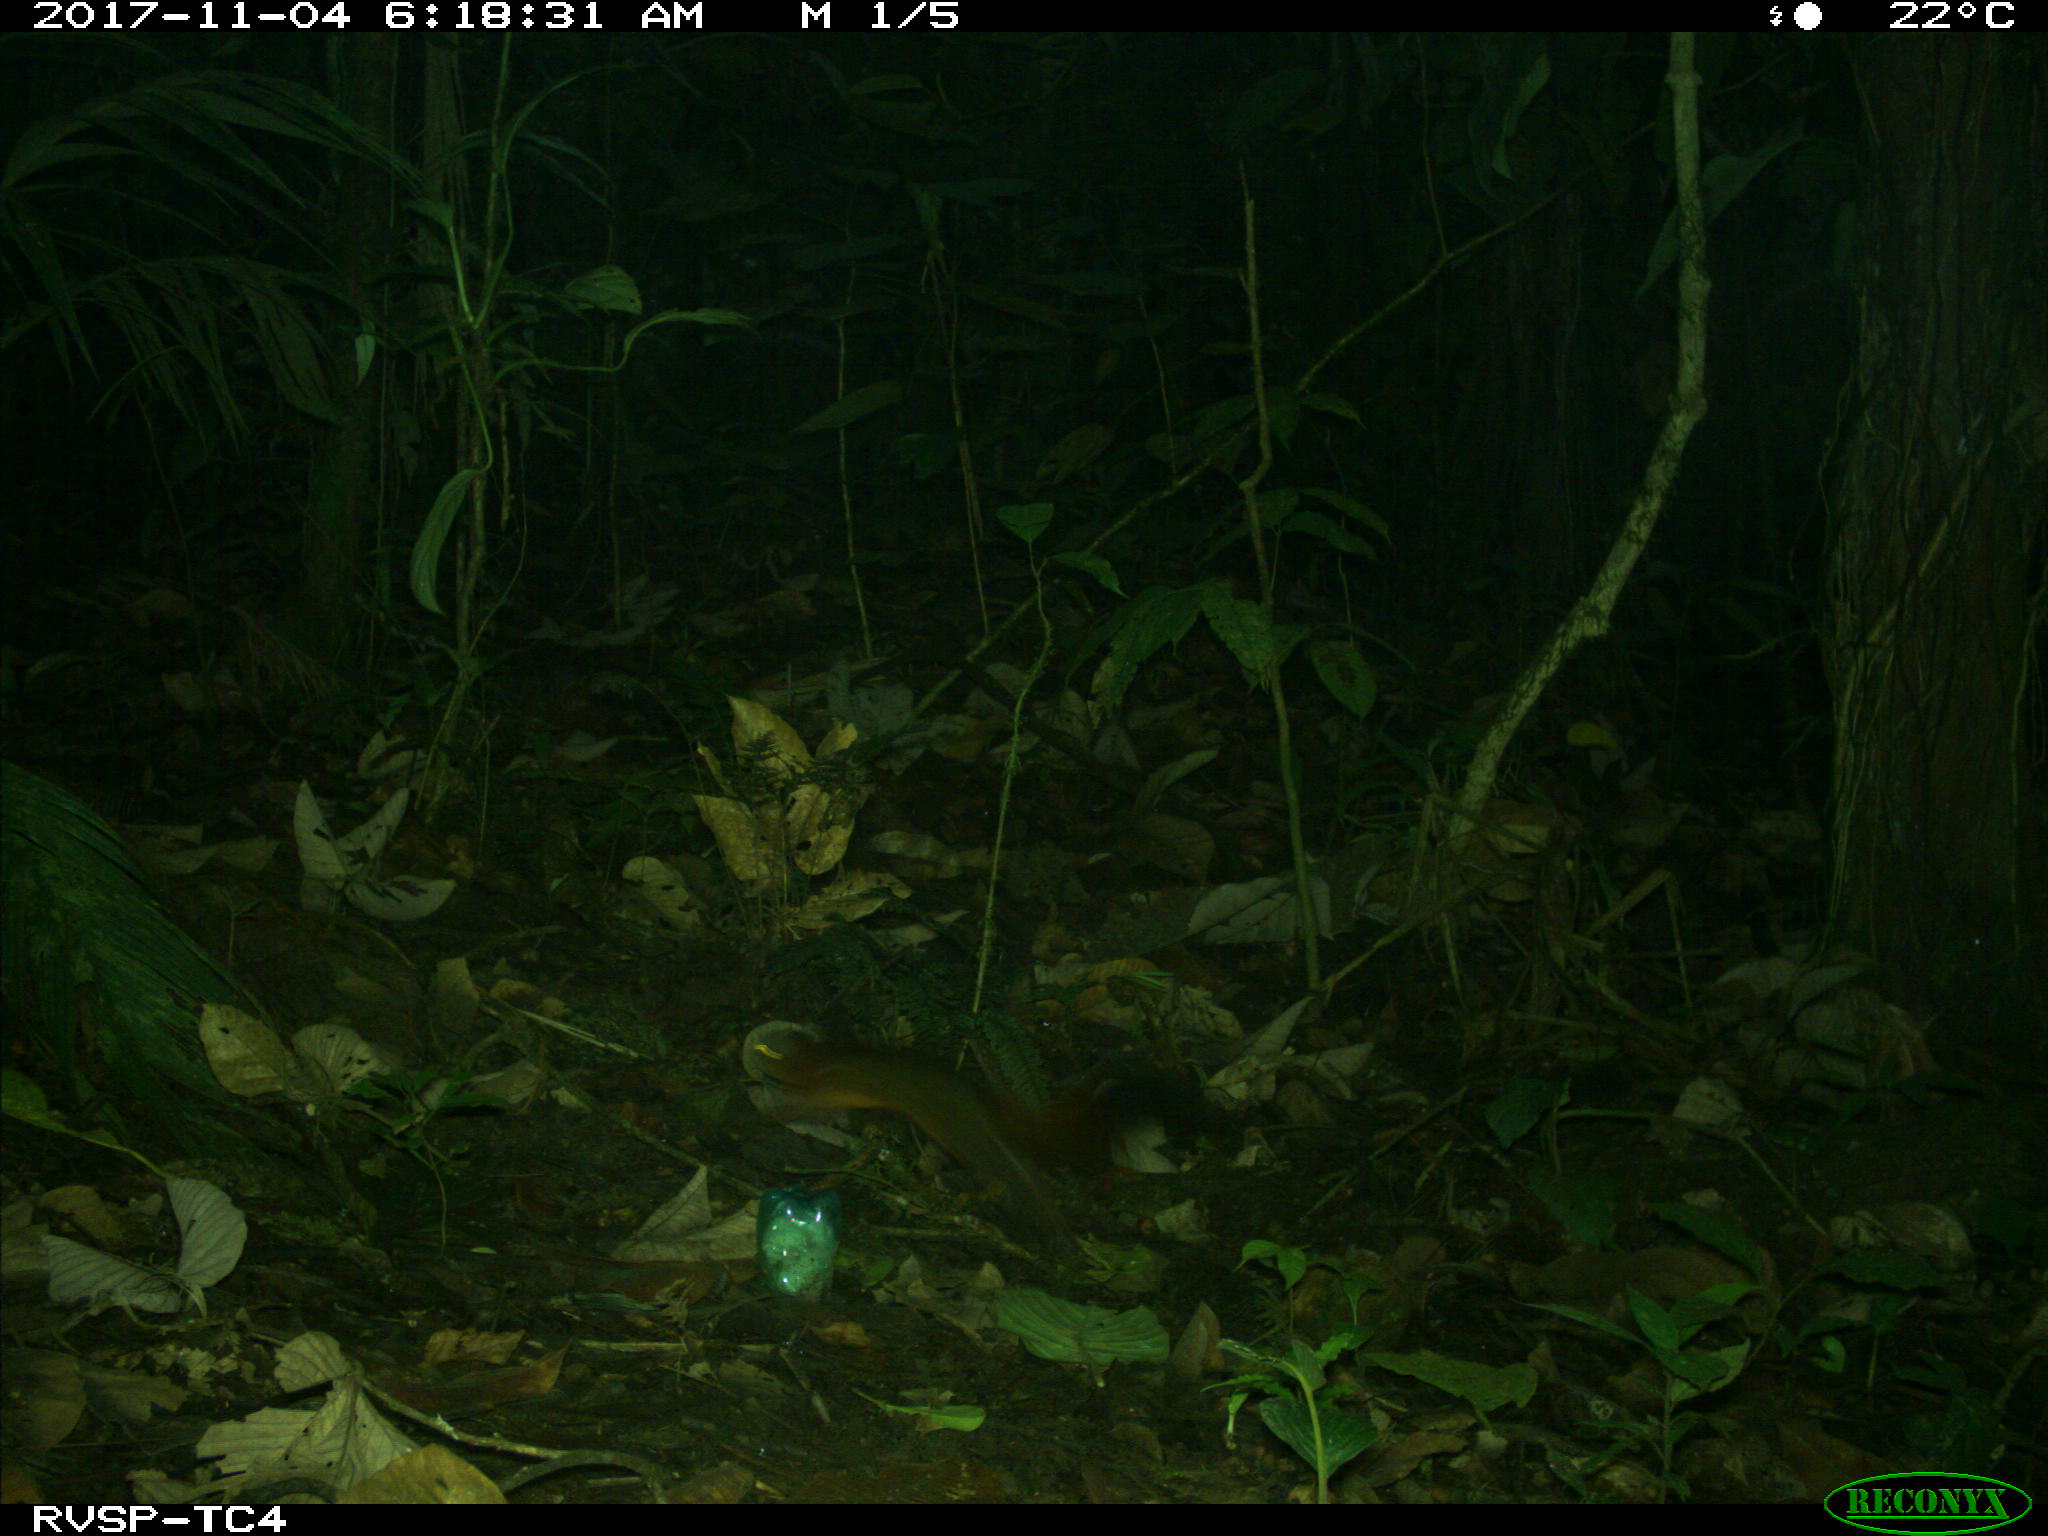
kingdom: Animalia
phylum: Chordata
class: Mammalia
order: Rodentia
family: Sciuridae
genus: Sciurus
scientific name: Sciurus granatensis
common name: Red-tailed squirrel
